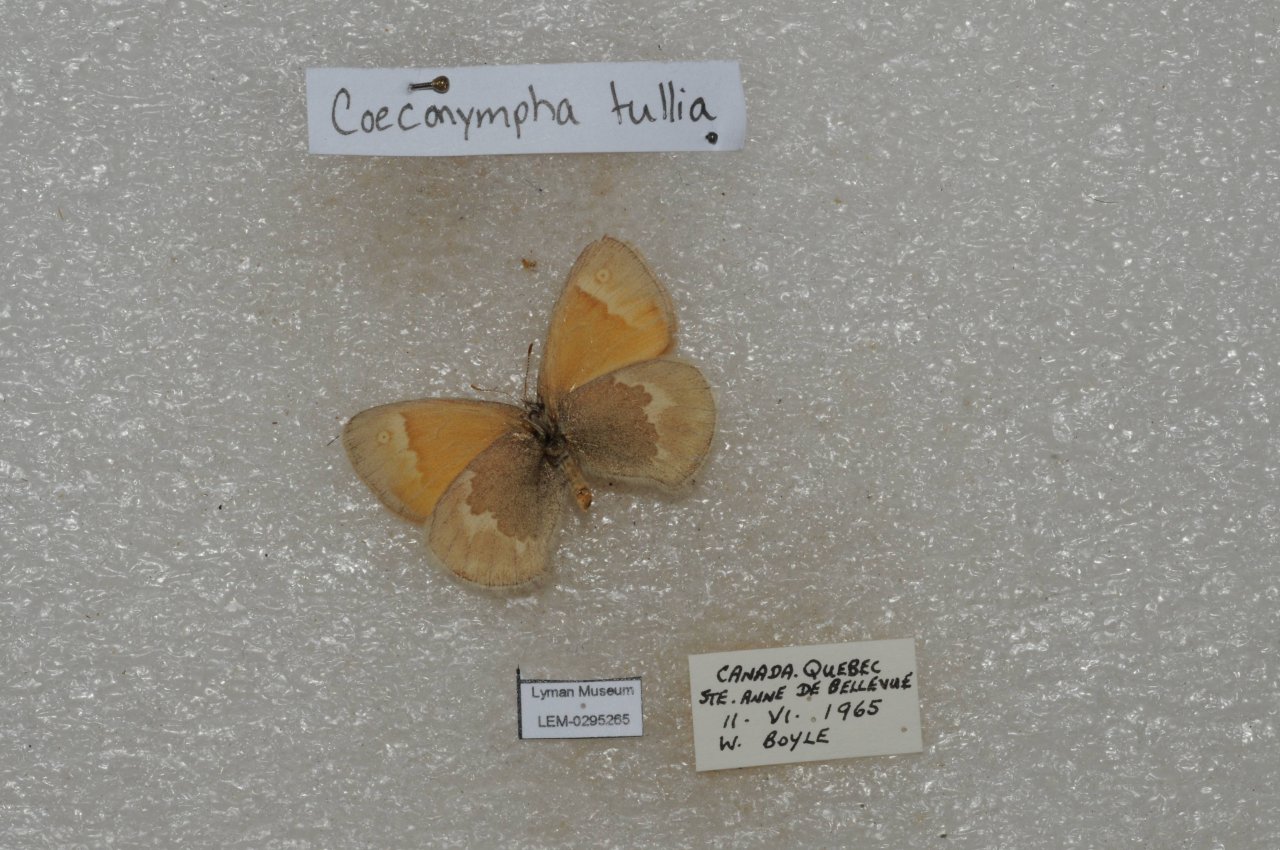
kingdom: Animalia
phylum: Arthropoda
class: Insecta
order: Lepidoptera
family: Nymphalidae
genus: Coenonympha
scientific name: Coenonympha tullia
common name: Large Heath
